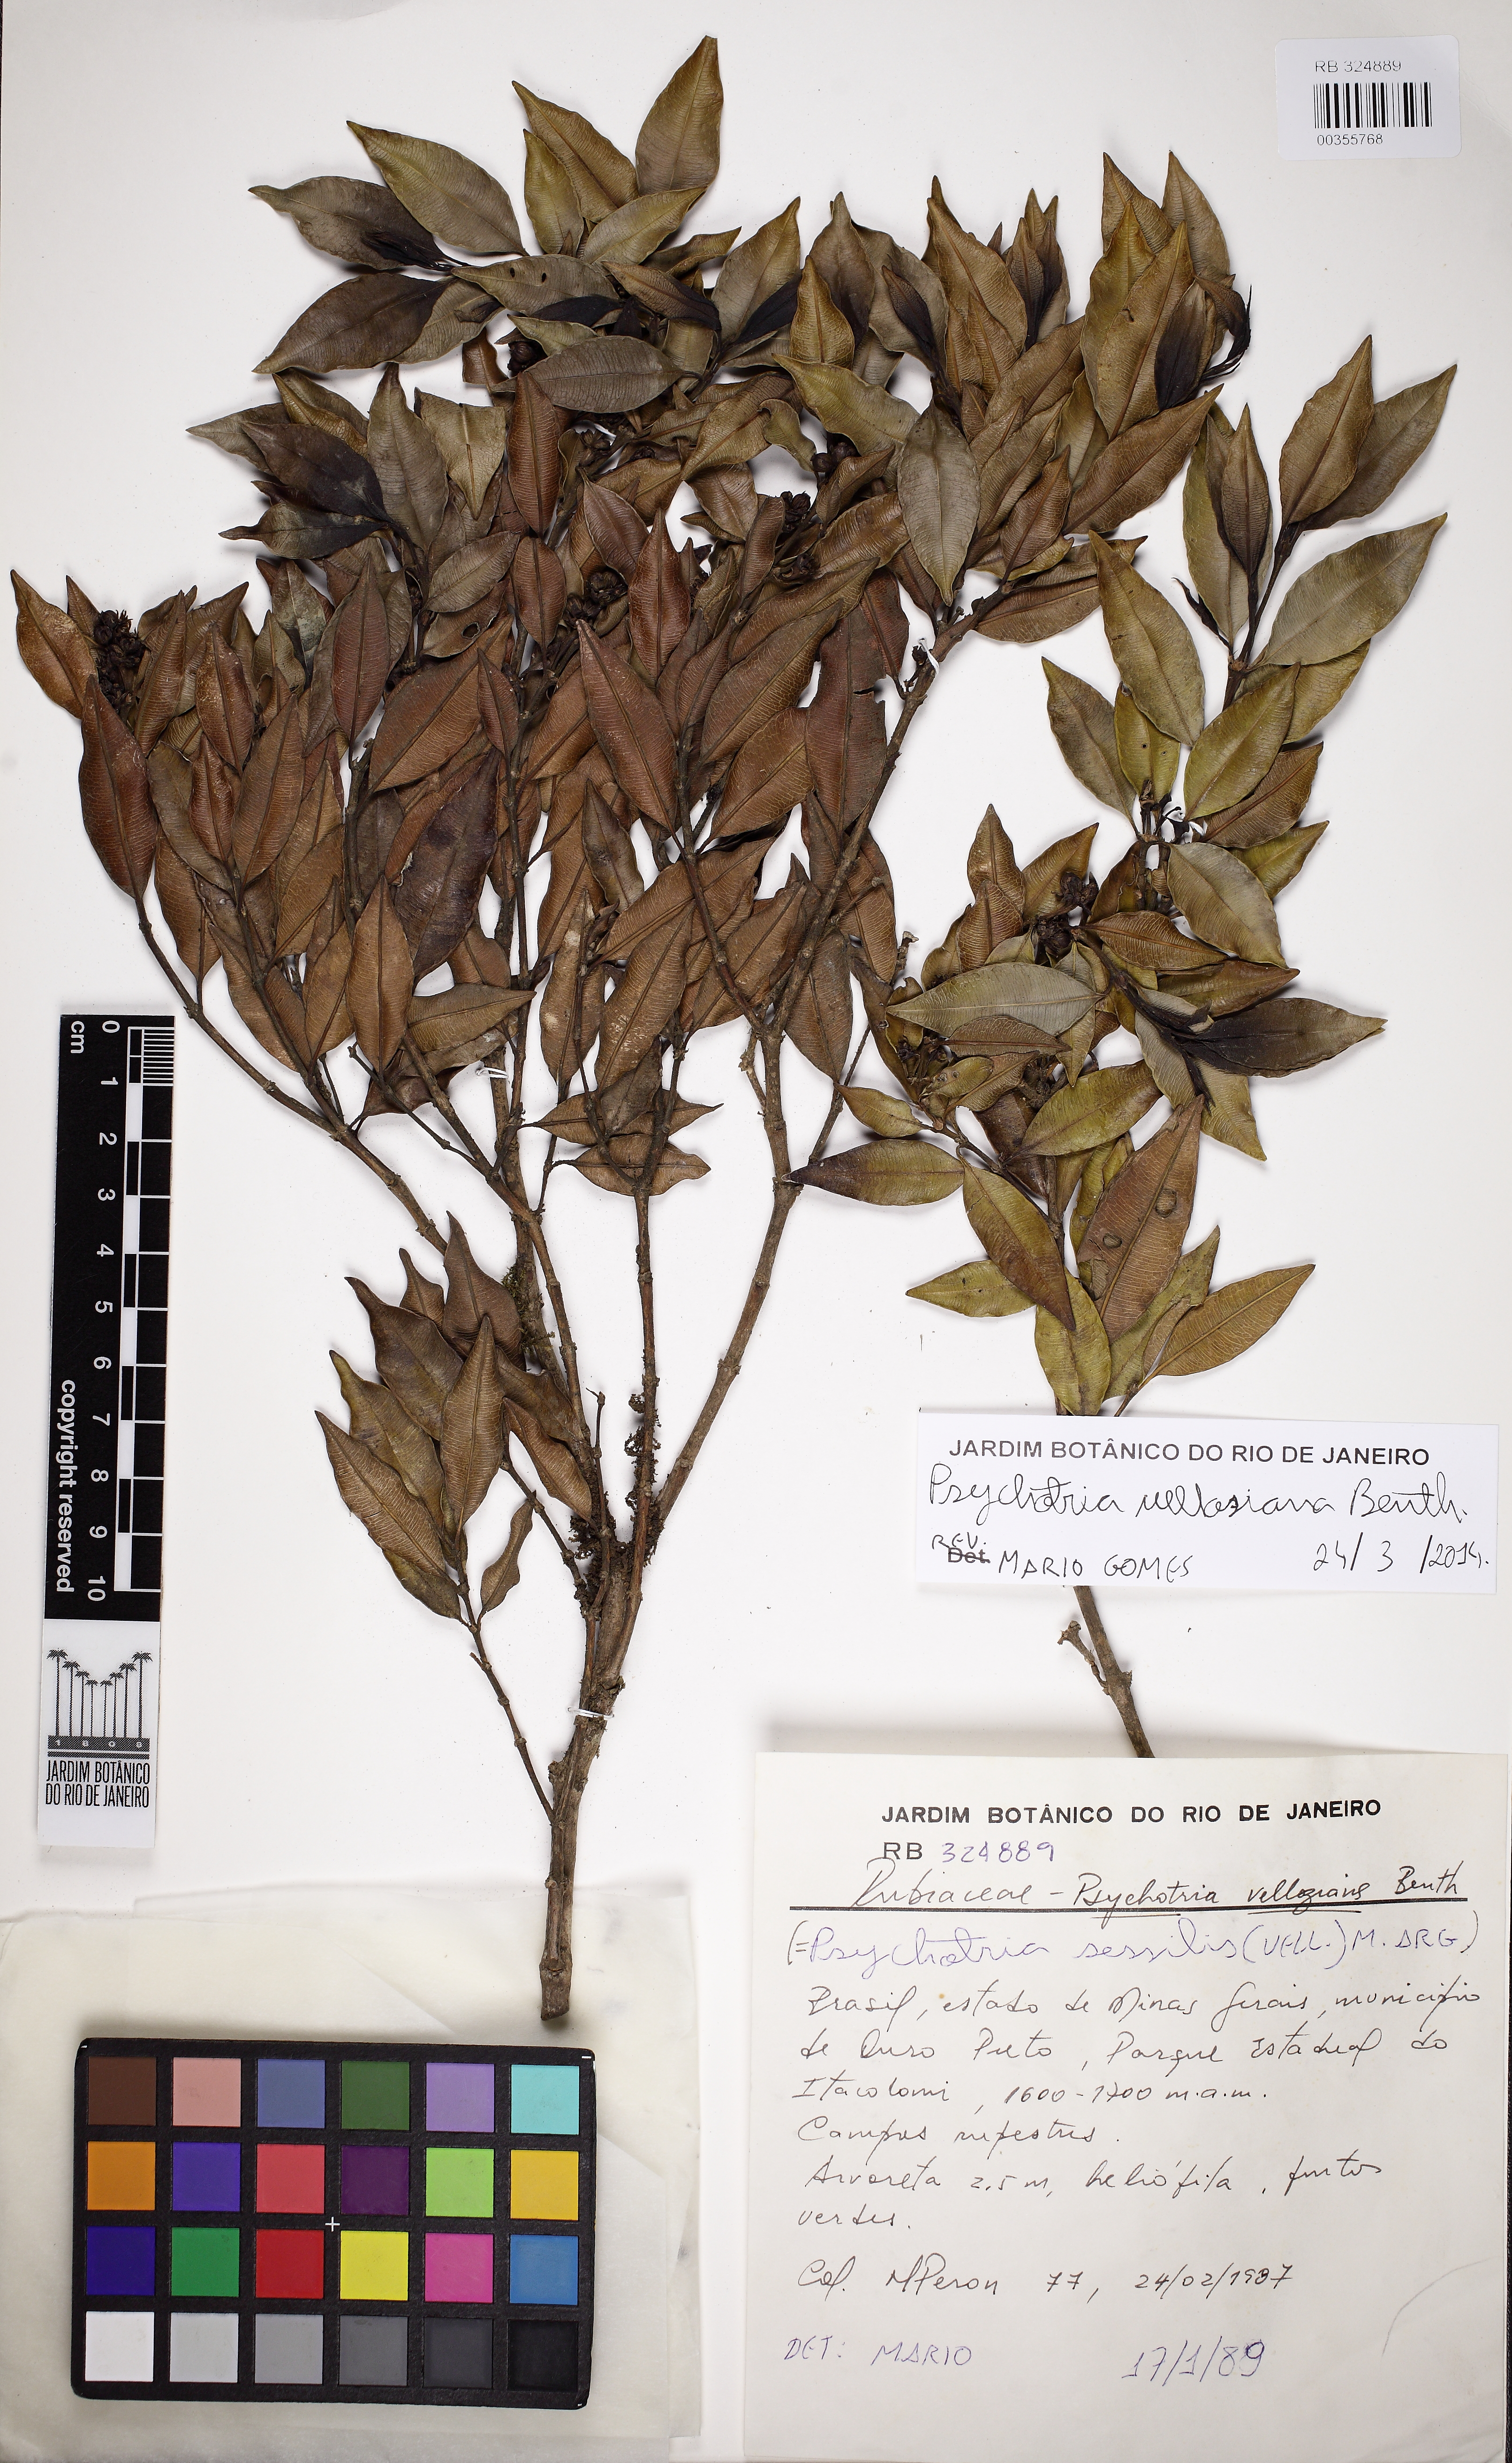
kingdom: Plantae
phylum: Tracheophyta
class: Magnoliopsida
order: Gentianales
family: Rubiaceae
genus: Palicourea
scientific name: Palicourea sessilis
